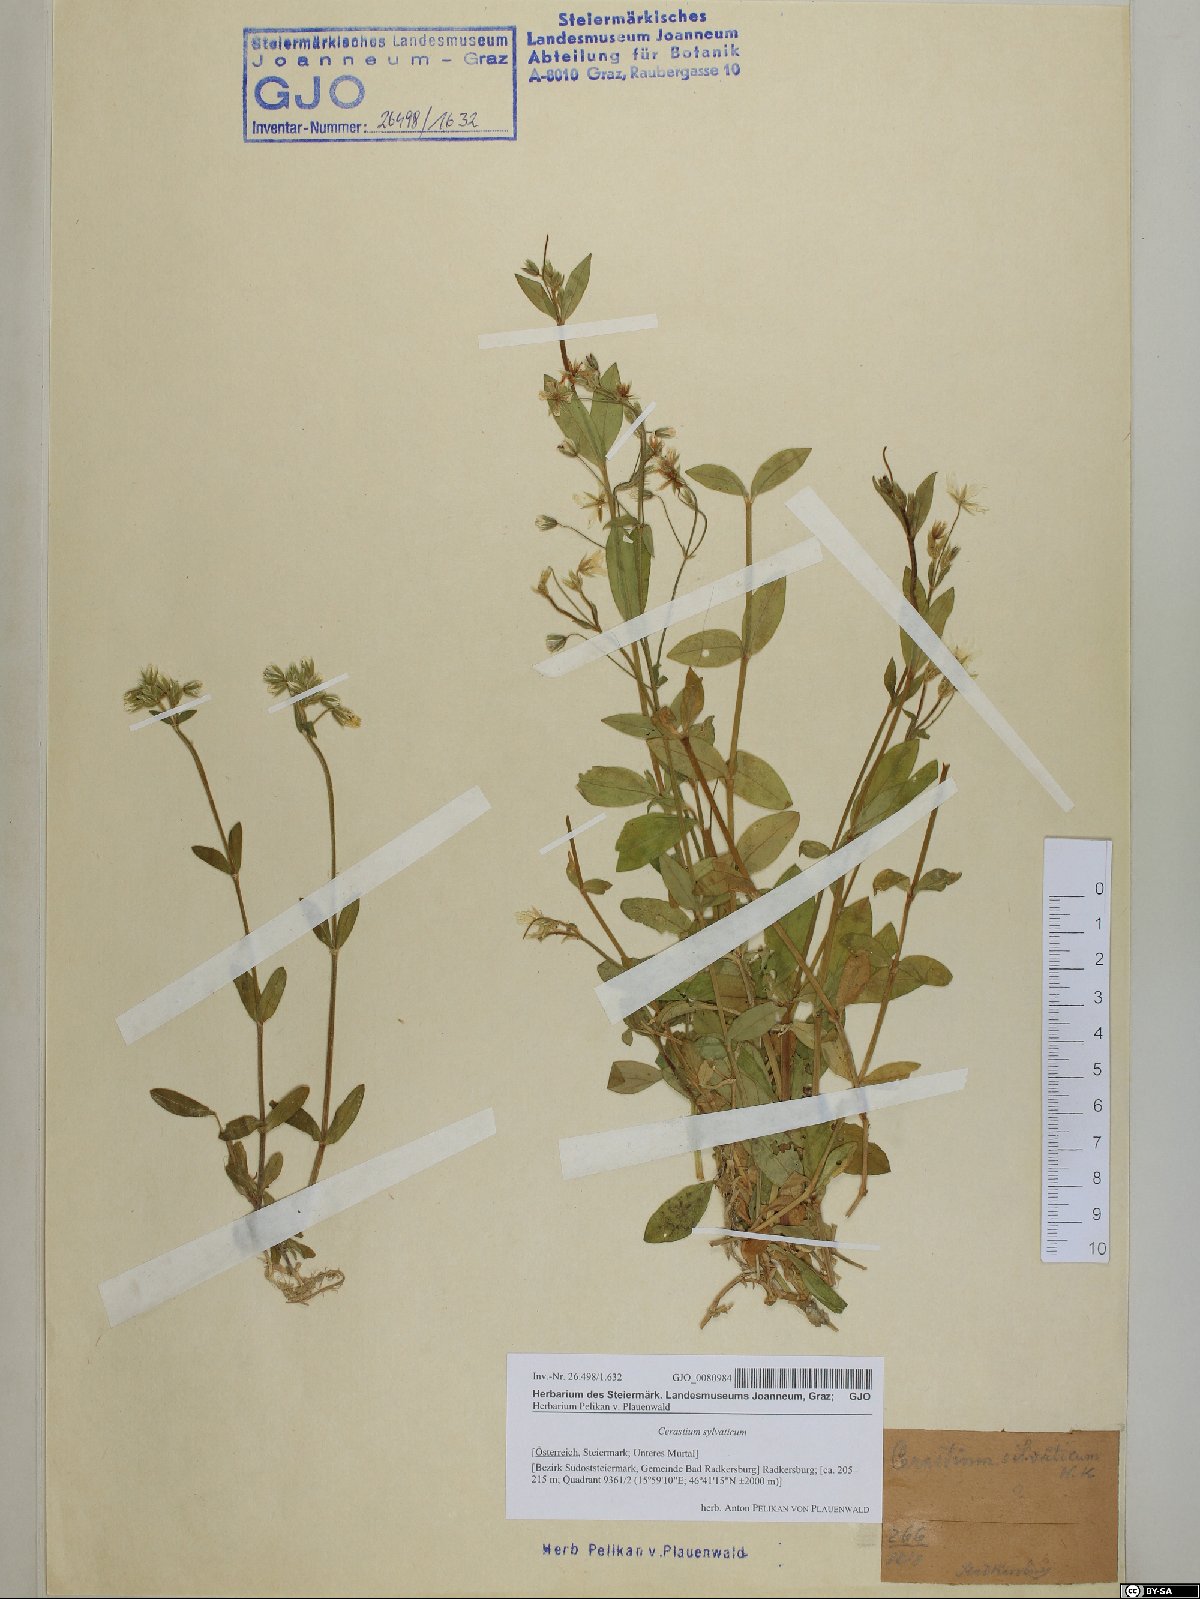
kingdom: Plantae
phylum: Tracheophyta
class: Magnoliopsida
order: Caryophyllales
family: Caryophyllaceae
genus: Cerastium
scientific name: Cerastium sylvaticum
